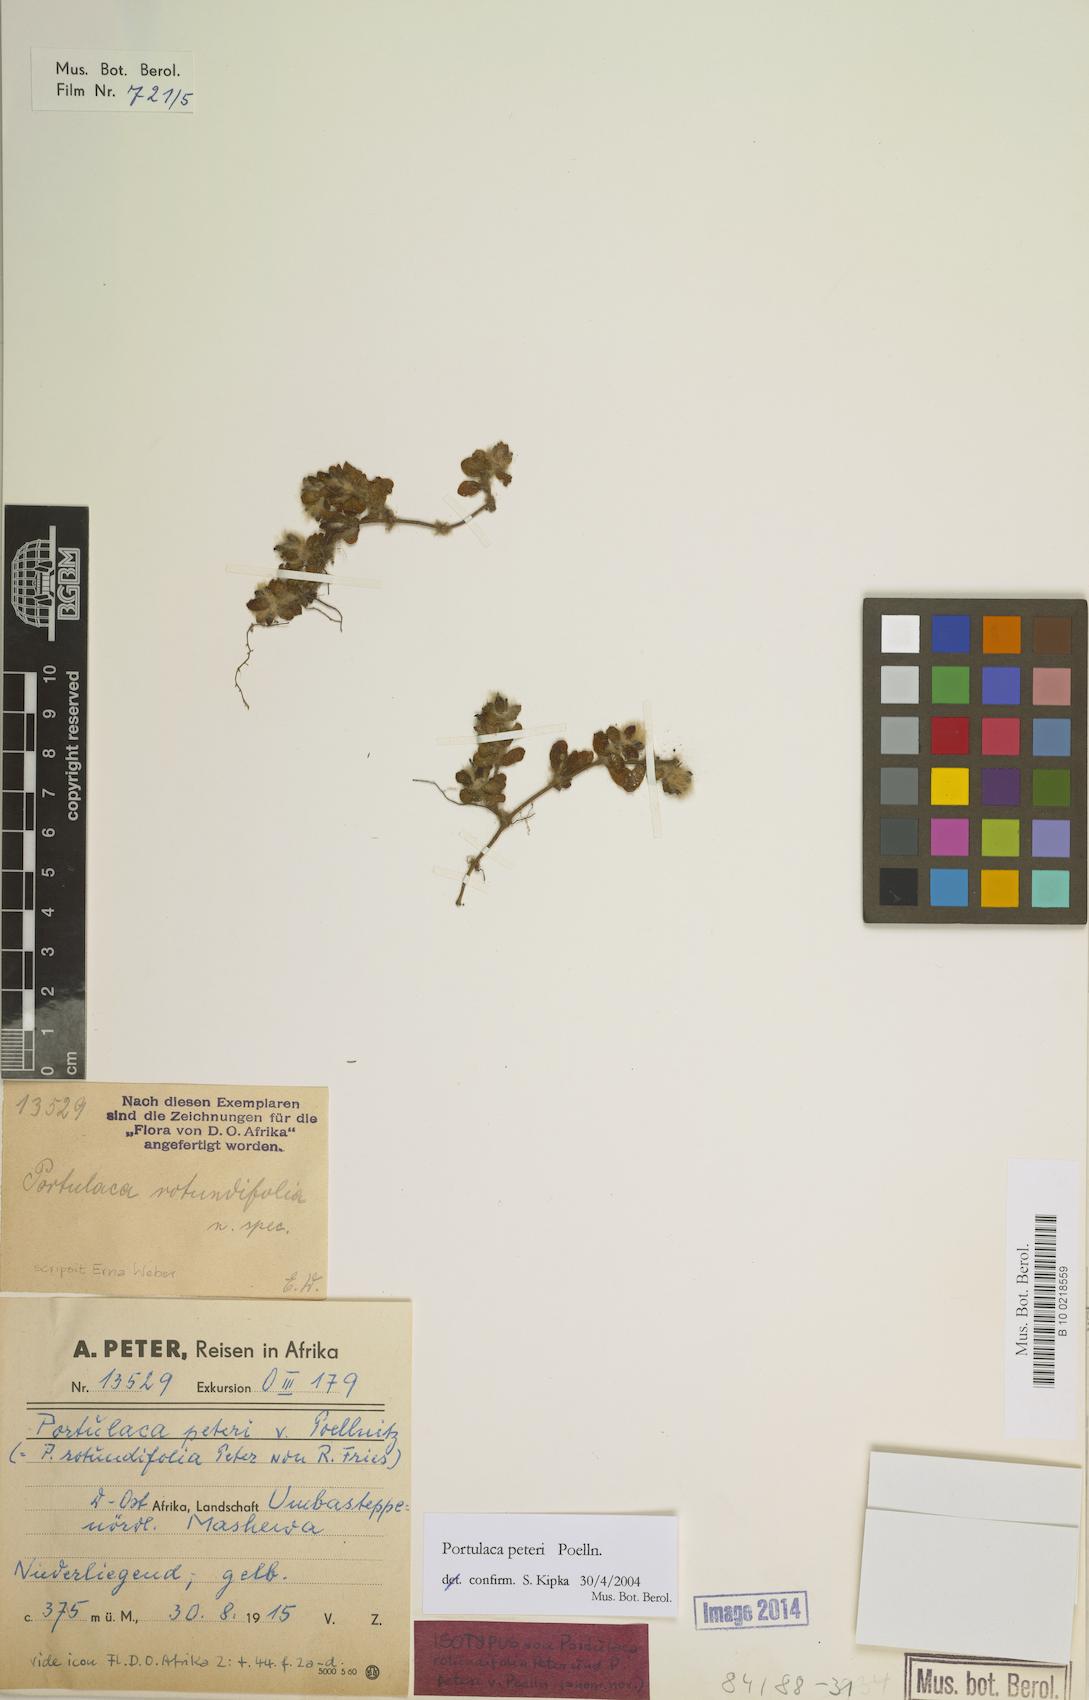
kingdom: Plantae
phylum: Tracheophyta
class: Magnoliopsida
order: Caryophyllales
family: Portulacaceae
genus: Portulaca
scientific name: Portulaca peteri
